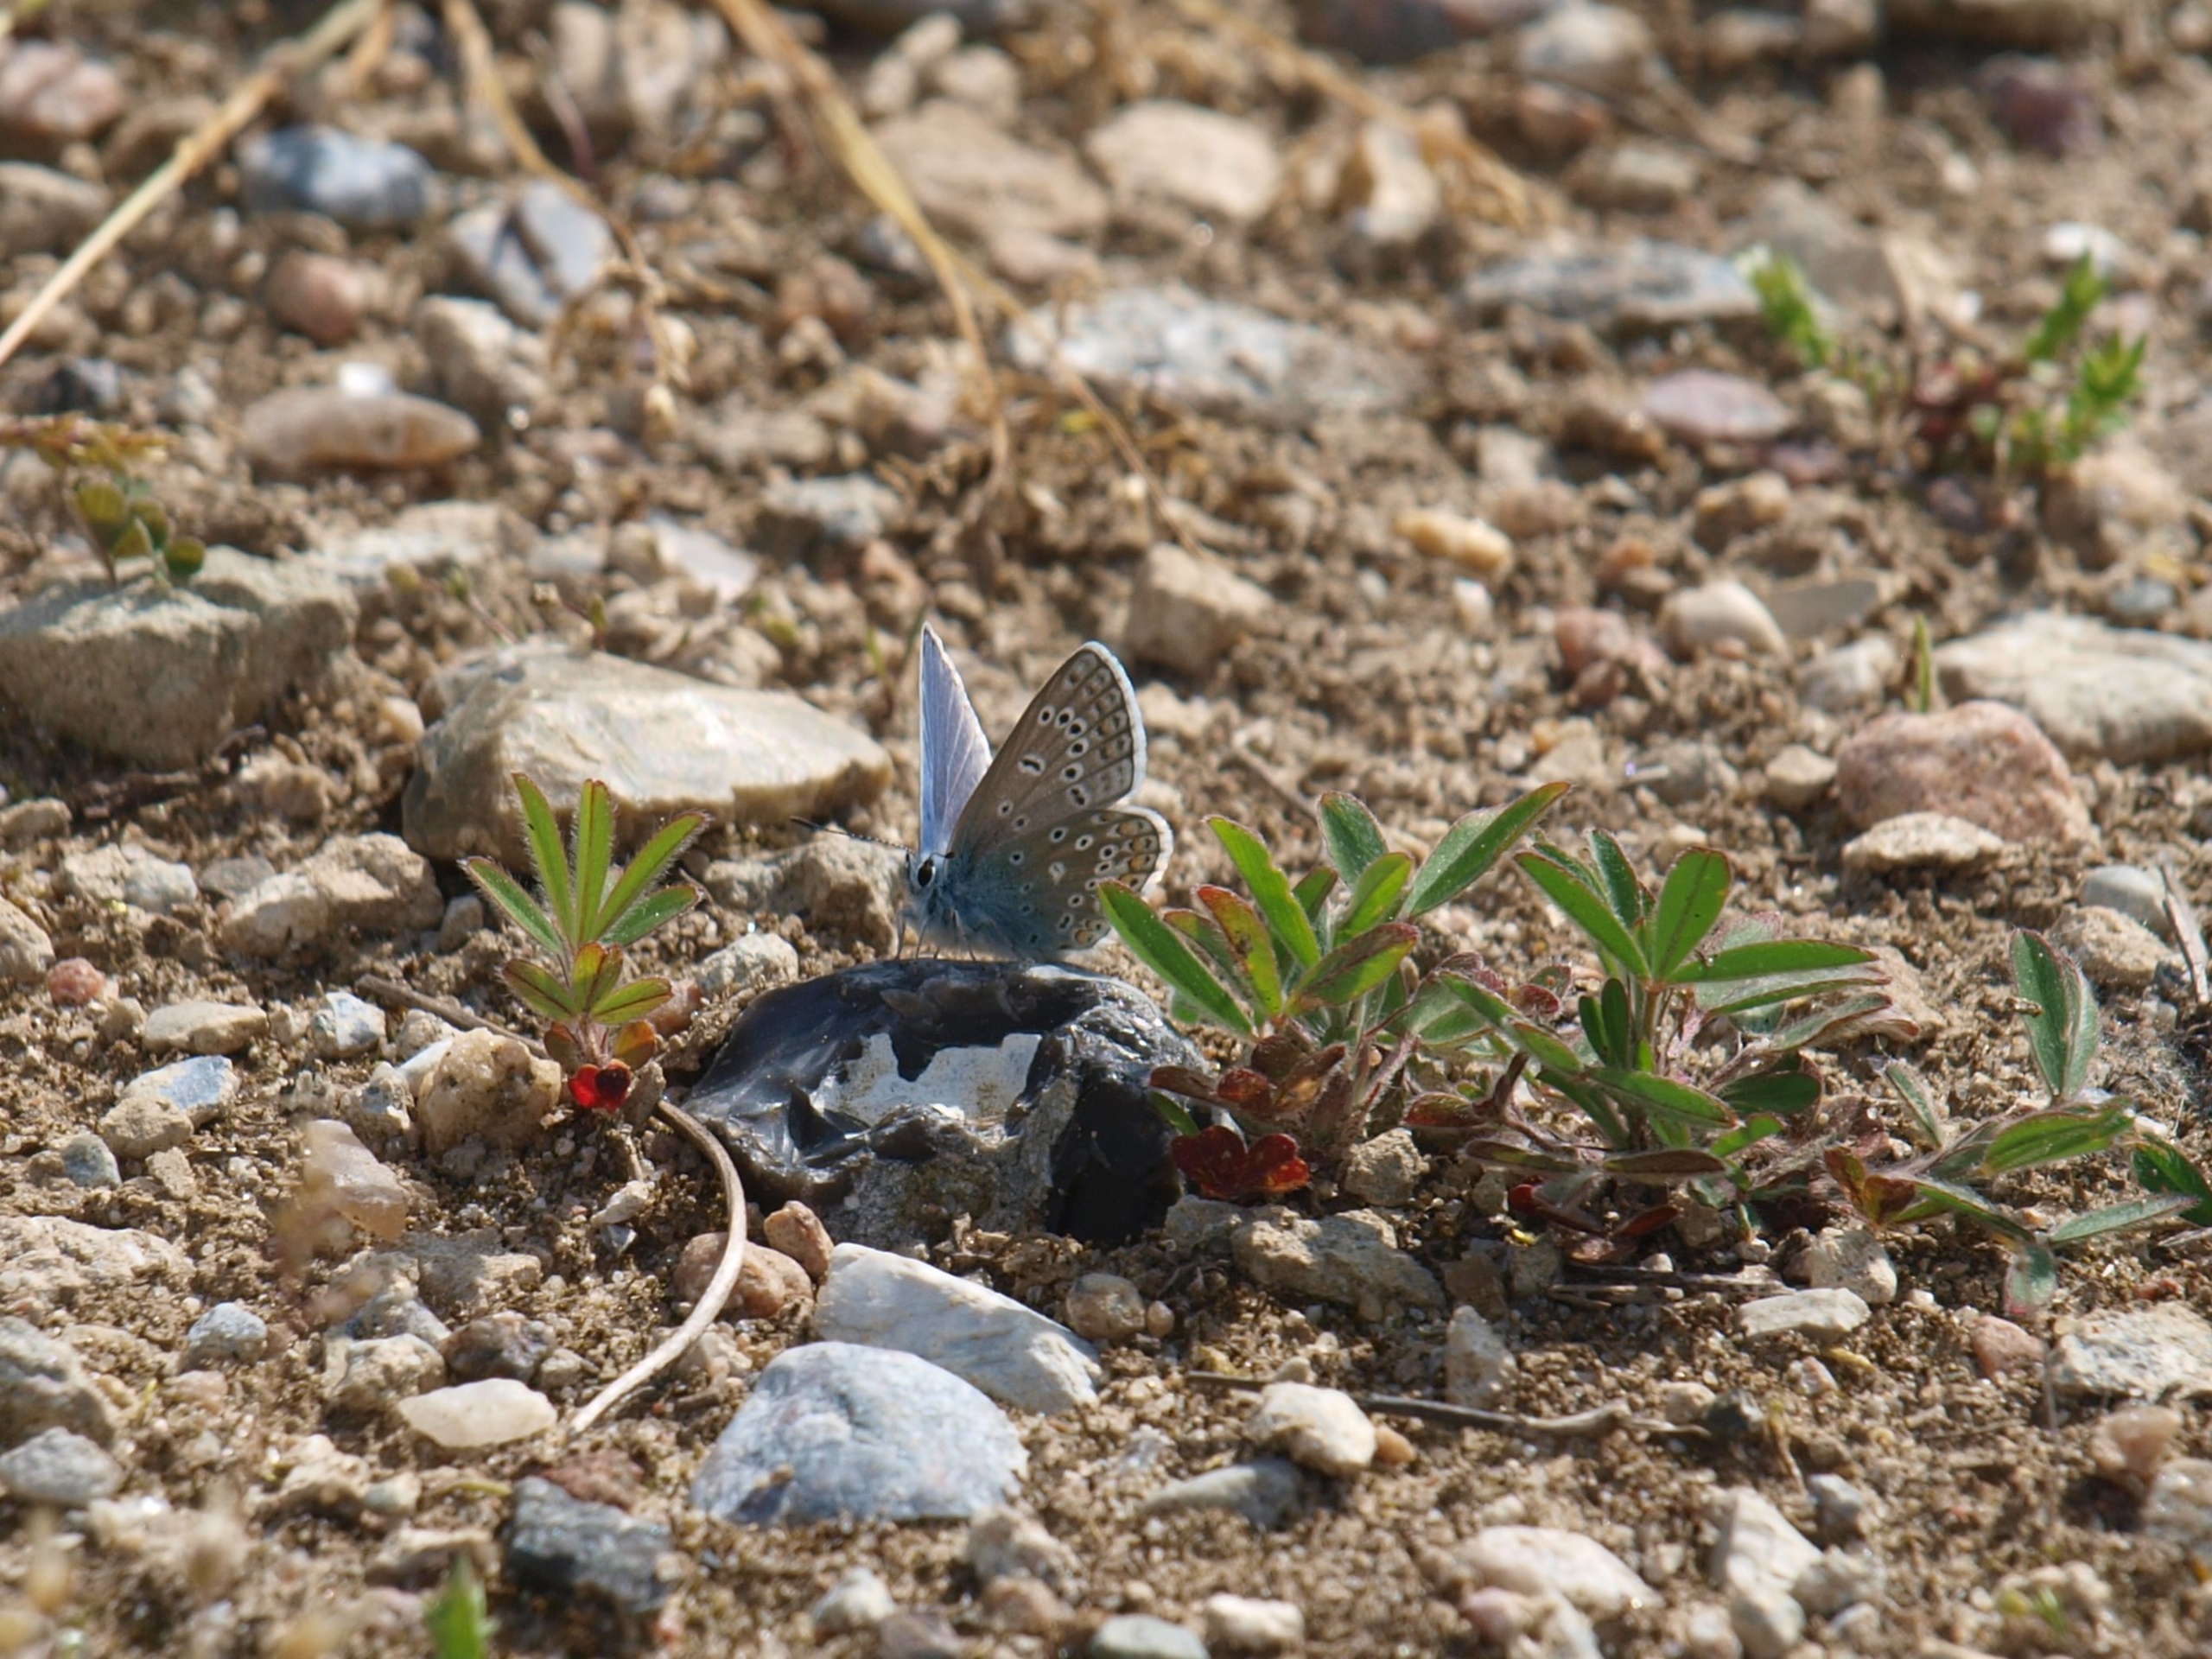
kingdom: Animalia
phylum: Arthropoda
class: Insecta
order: Lepidoptera
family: Lycaenidae
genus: Polyommatus
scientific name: Polyommatus icarus
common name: Almindelig blåfugl
